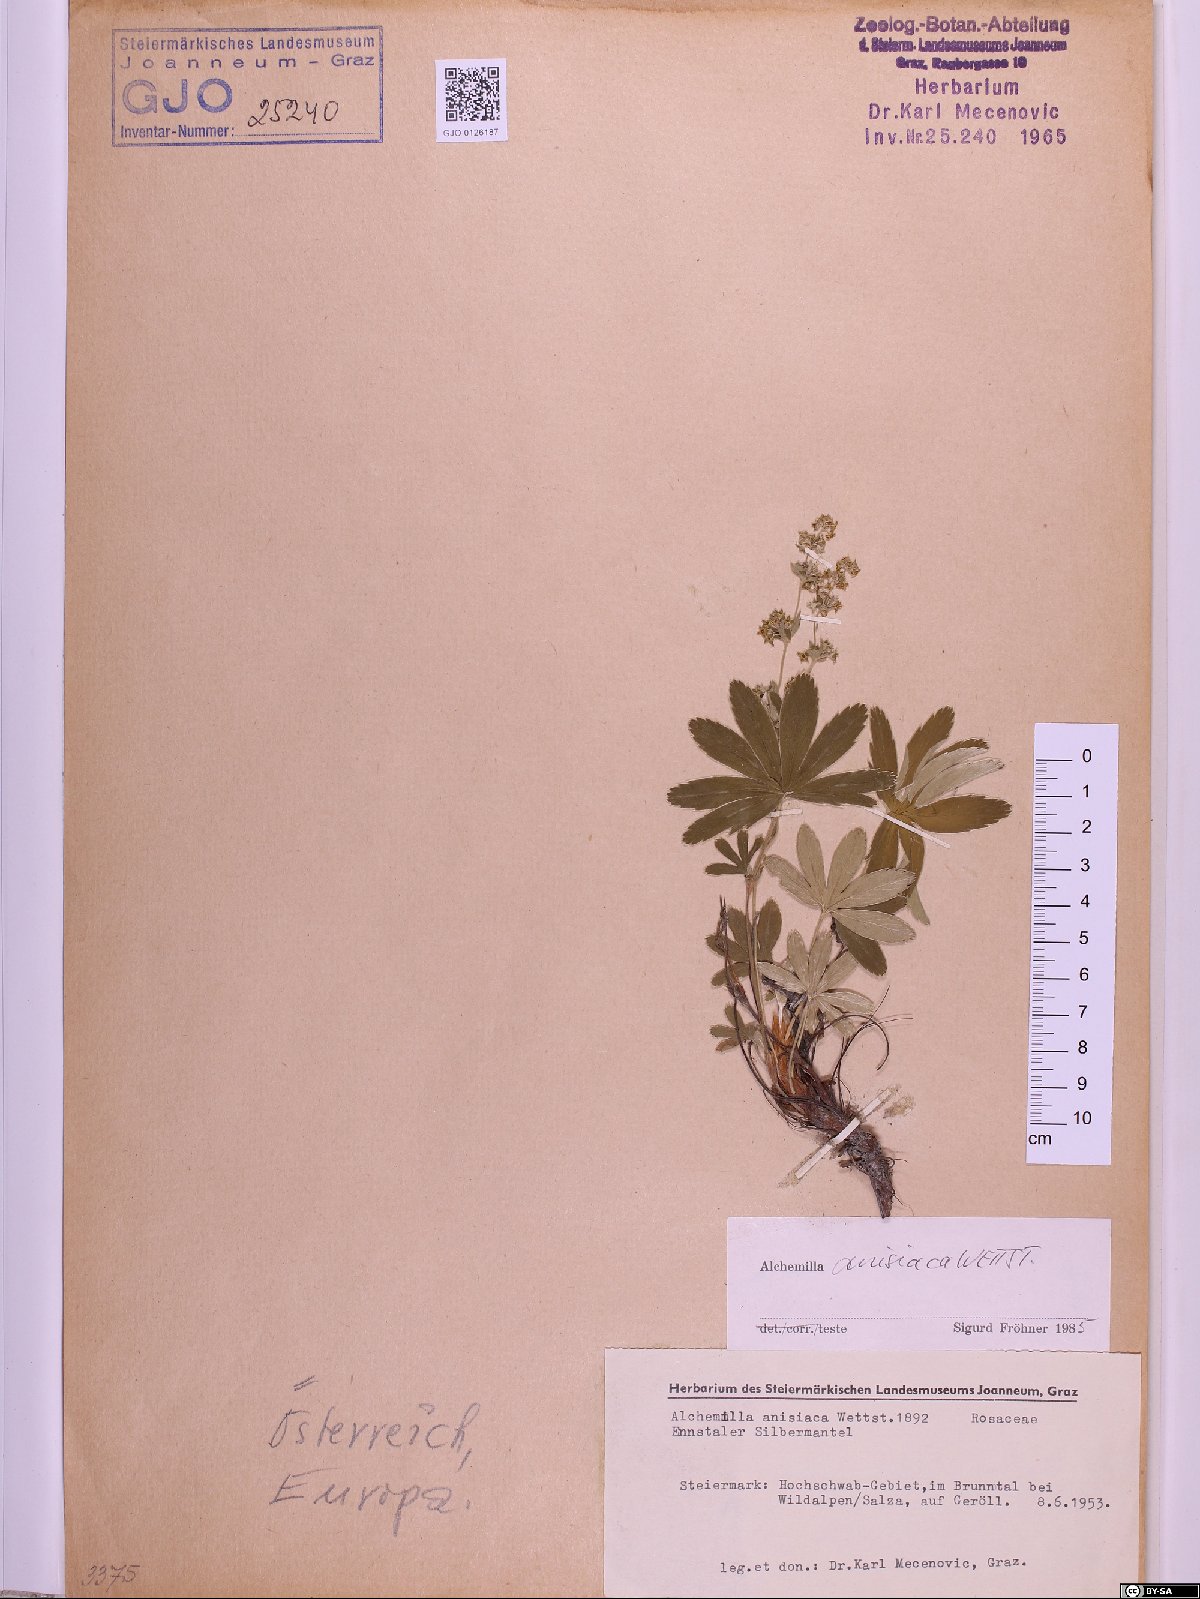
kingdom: Plantae
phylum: Tracheophyta
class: Magnoliopsida
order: Rosales
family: Rosaceae
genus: Alchemilla
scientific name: Alchemilla anisiaca
